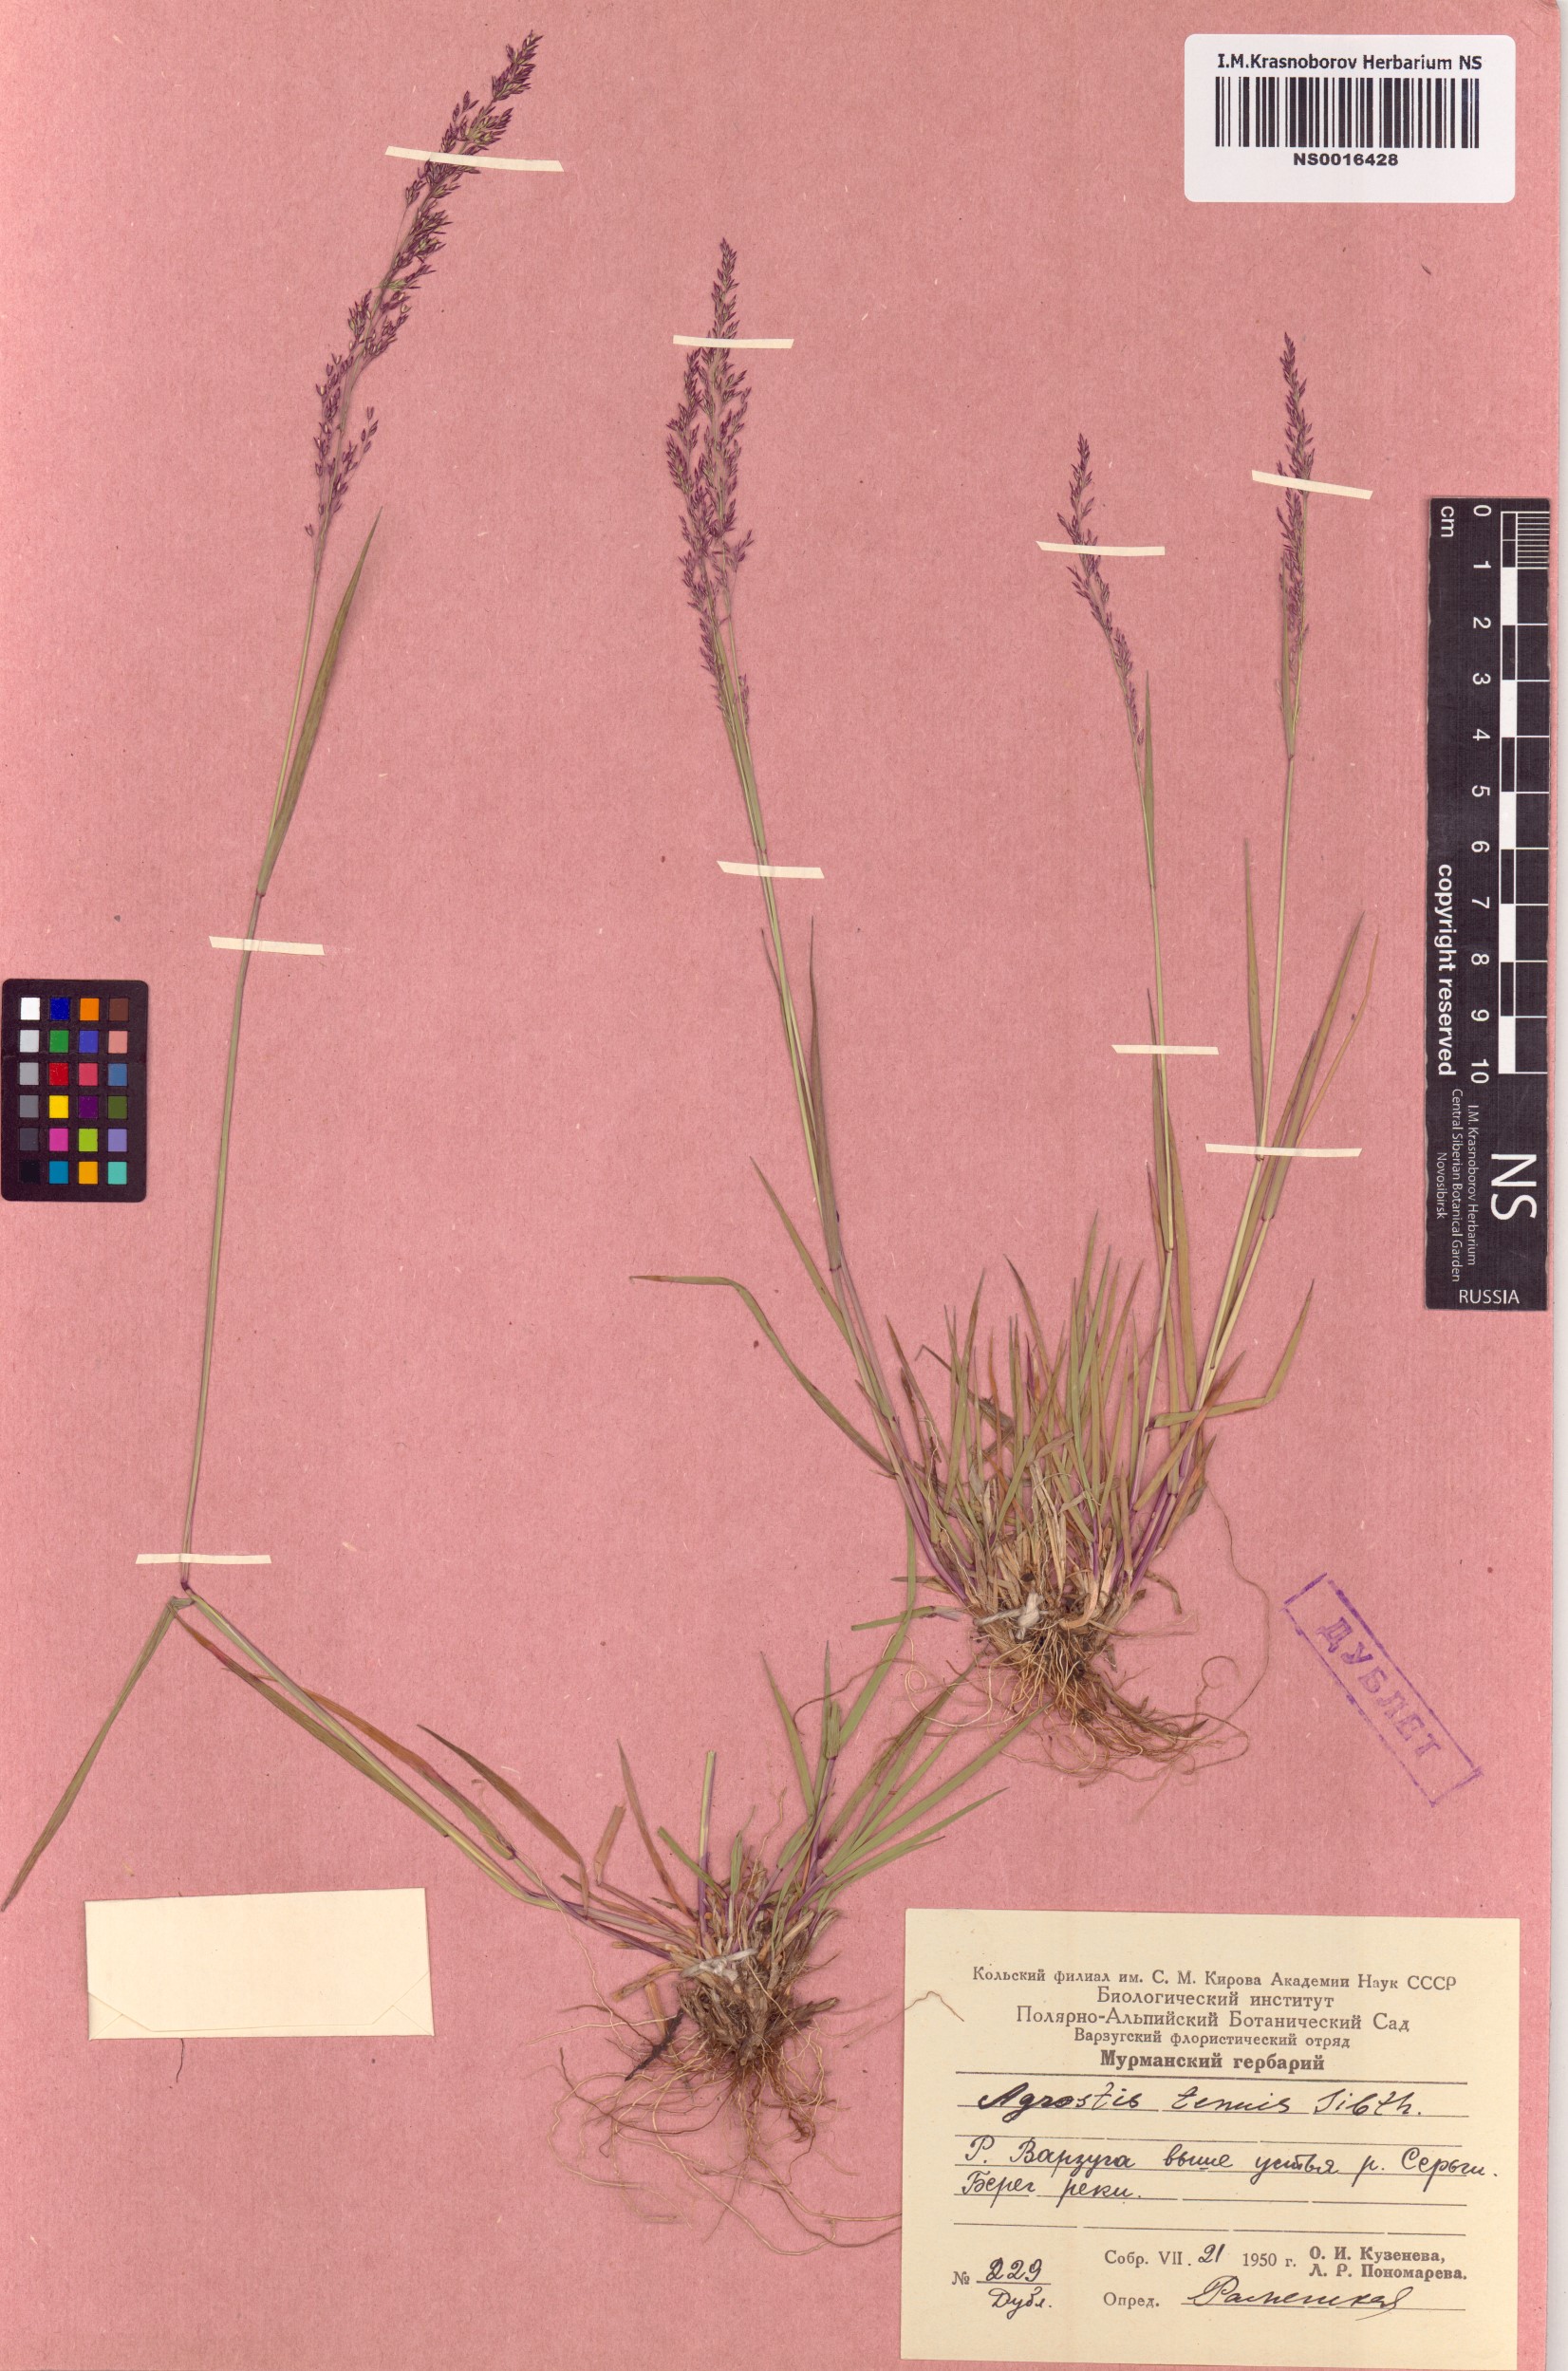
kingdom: Plantae
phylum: Tracheophyta
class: Liliopsida
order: Poales
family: Poaceae
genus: Agrostis
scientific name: Agrostis capillaris
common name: Colonial bentgrass
